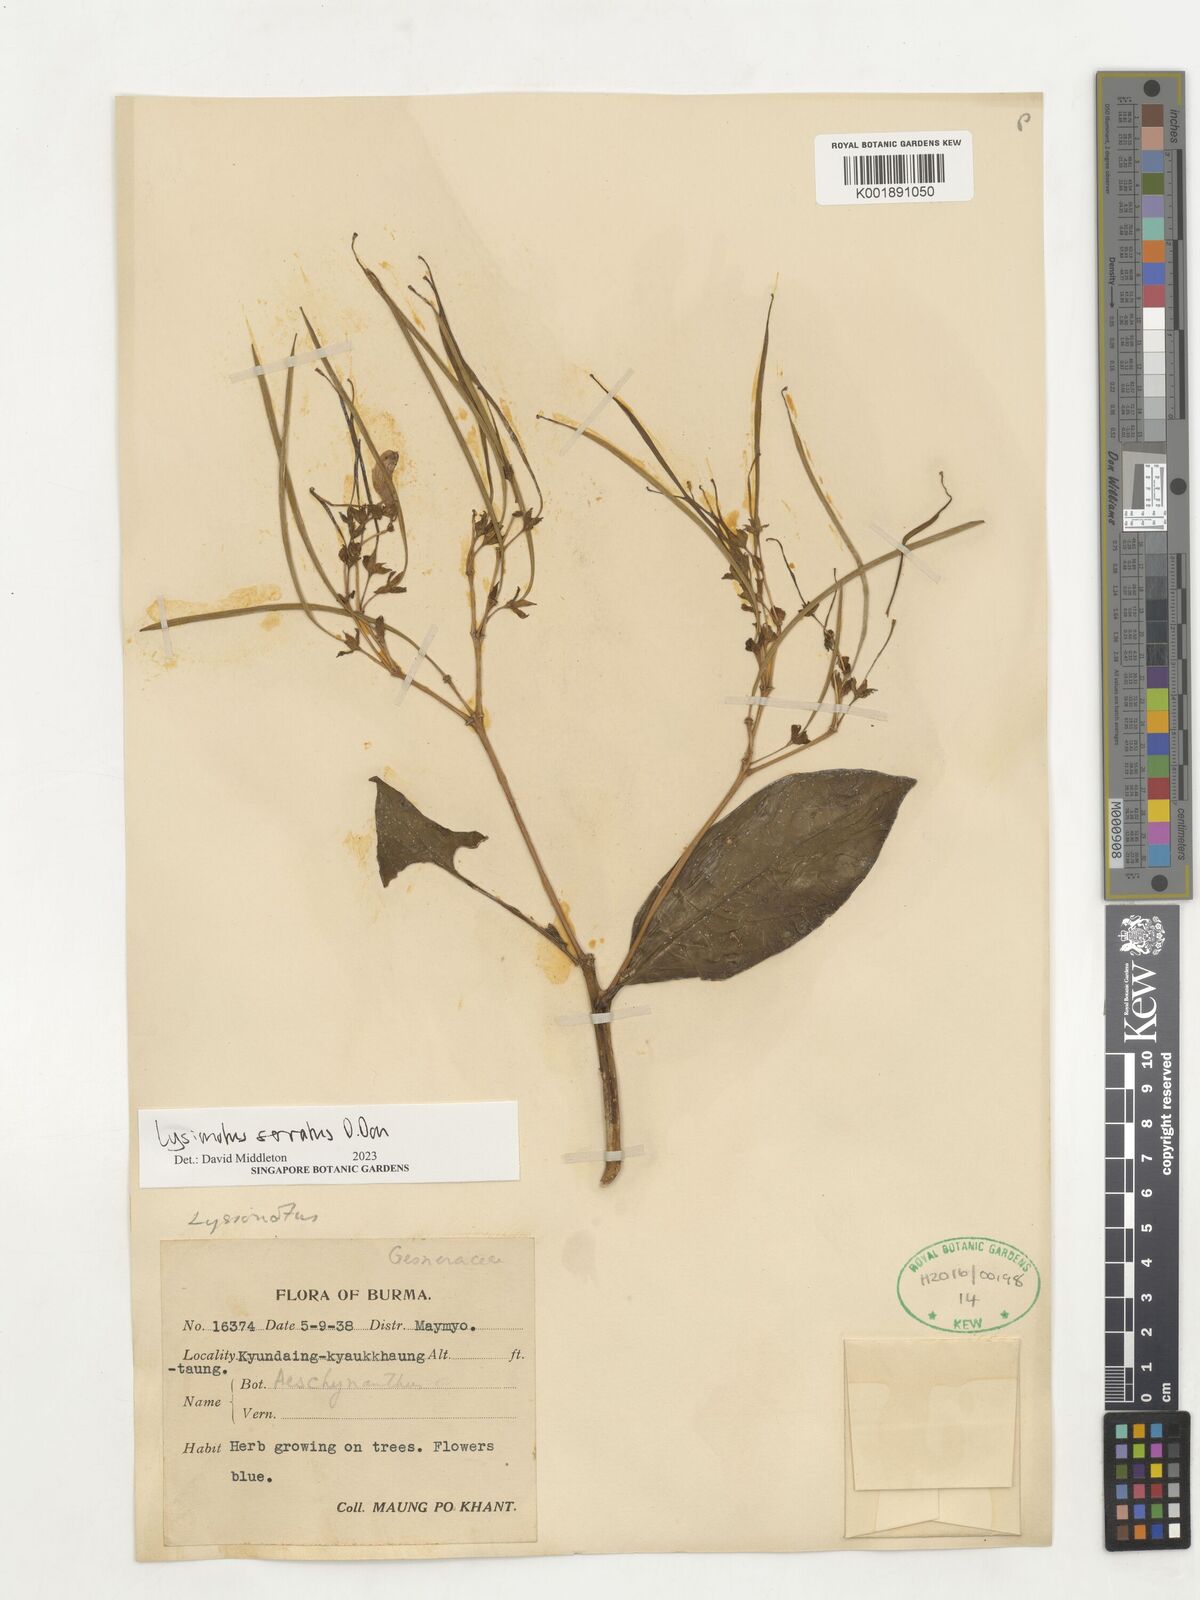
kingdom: Plantae
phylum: Tracheophyta
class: Magnoliopsida
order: Lamiales
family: Gesneriaceae
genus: Lysionotus
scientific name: Lysionotus serratus
